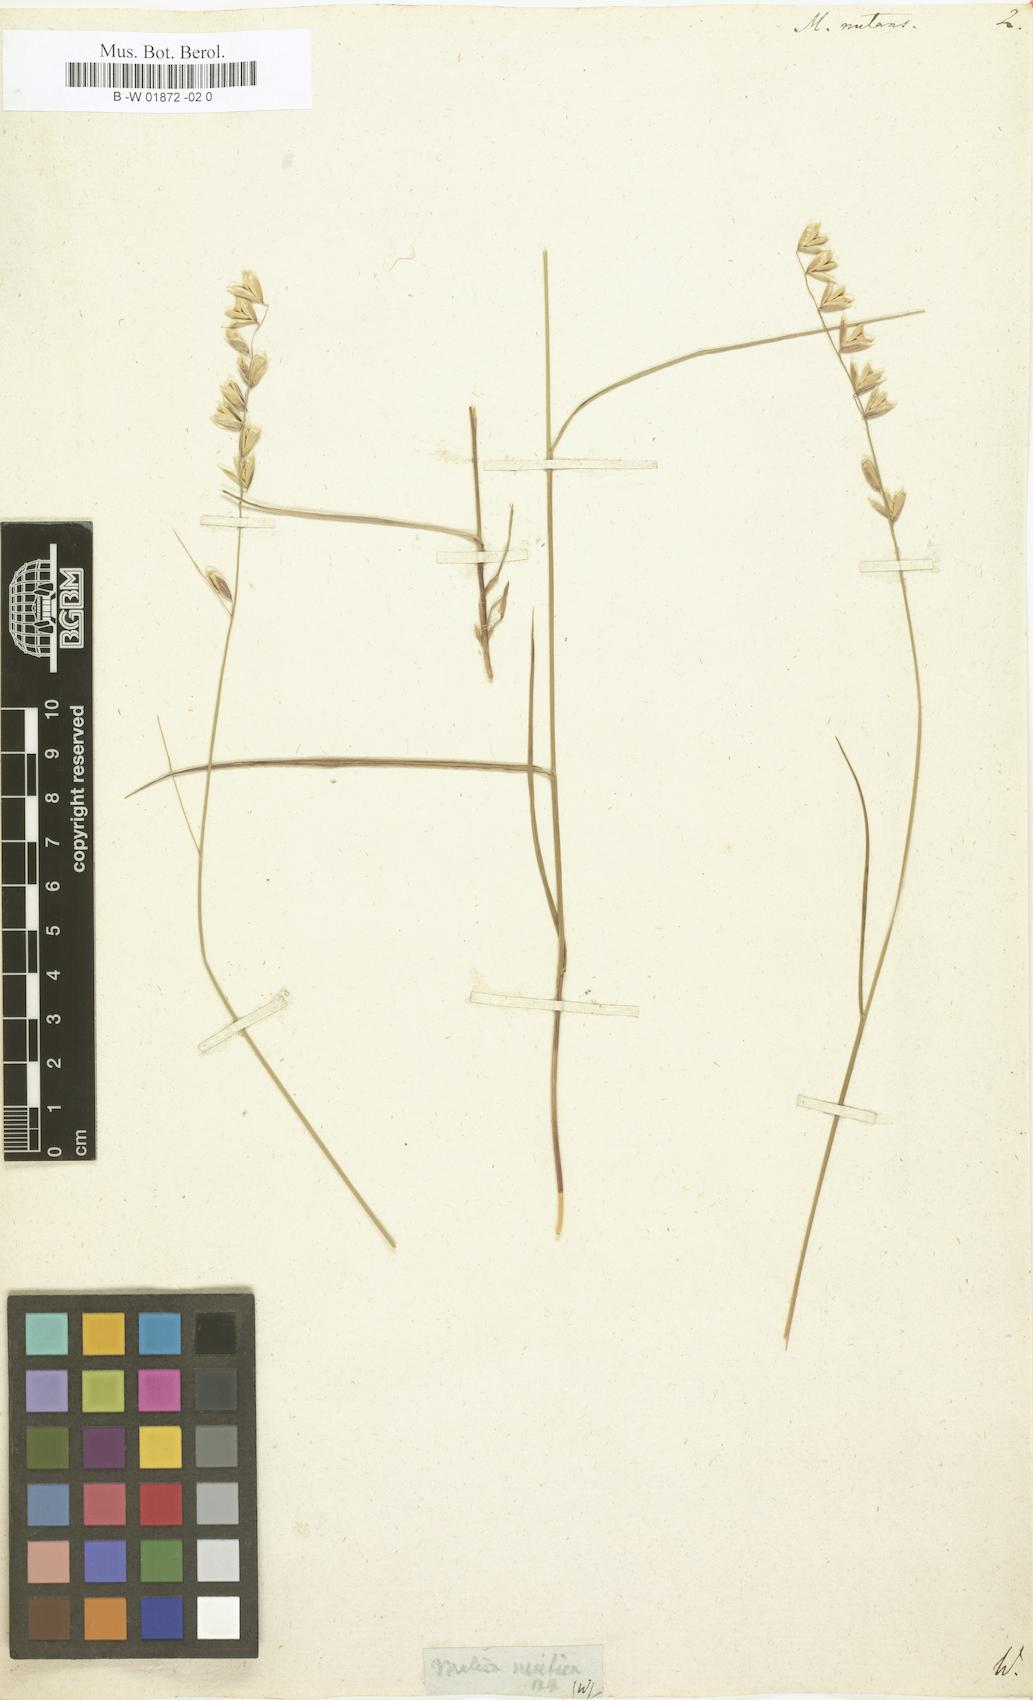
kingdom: Plantae
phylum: Tracheophyta
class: Liliopsida
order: Poales
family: Poaceae
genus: Melica
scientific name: Melica nutans
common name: Mountain melick
